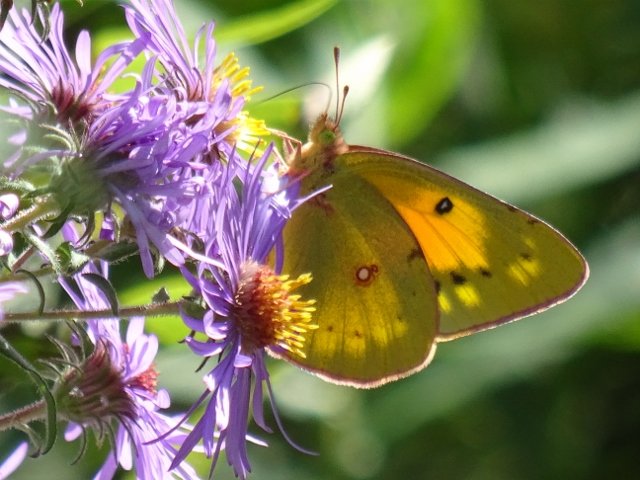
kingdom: Animalia
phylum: Arthropoda
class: Insecta
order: Lepidoptera
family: Pieridae
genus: Colias
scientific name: Colias eurytheme
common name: Orange Sulphur
